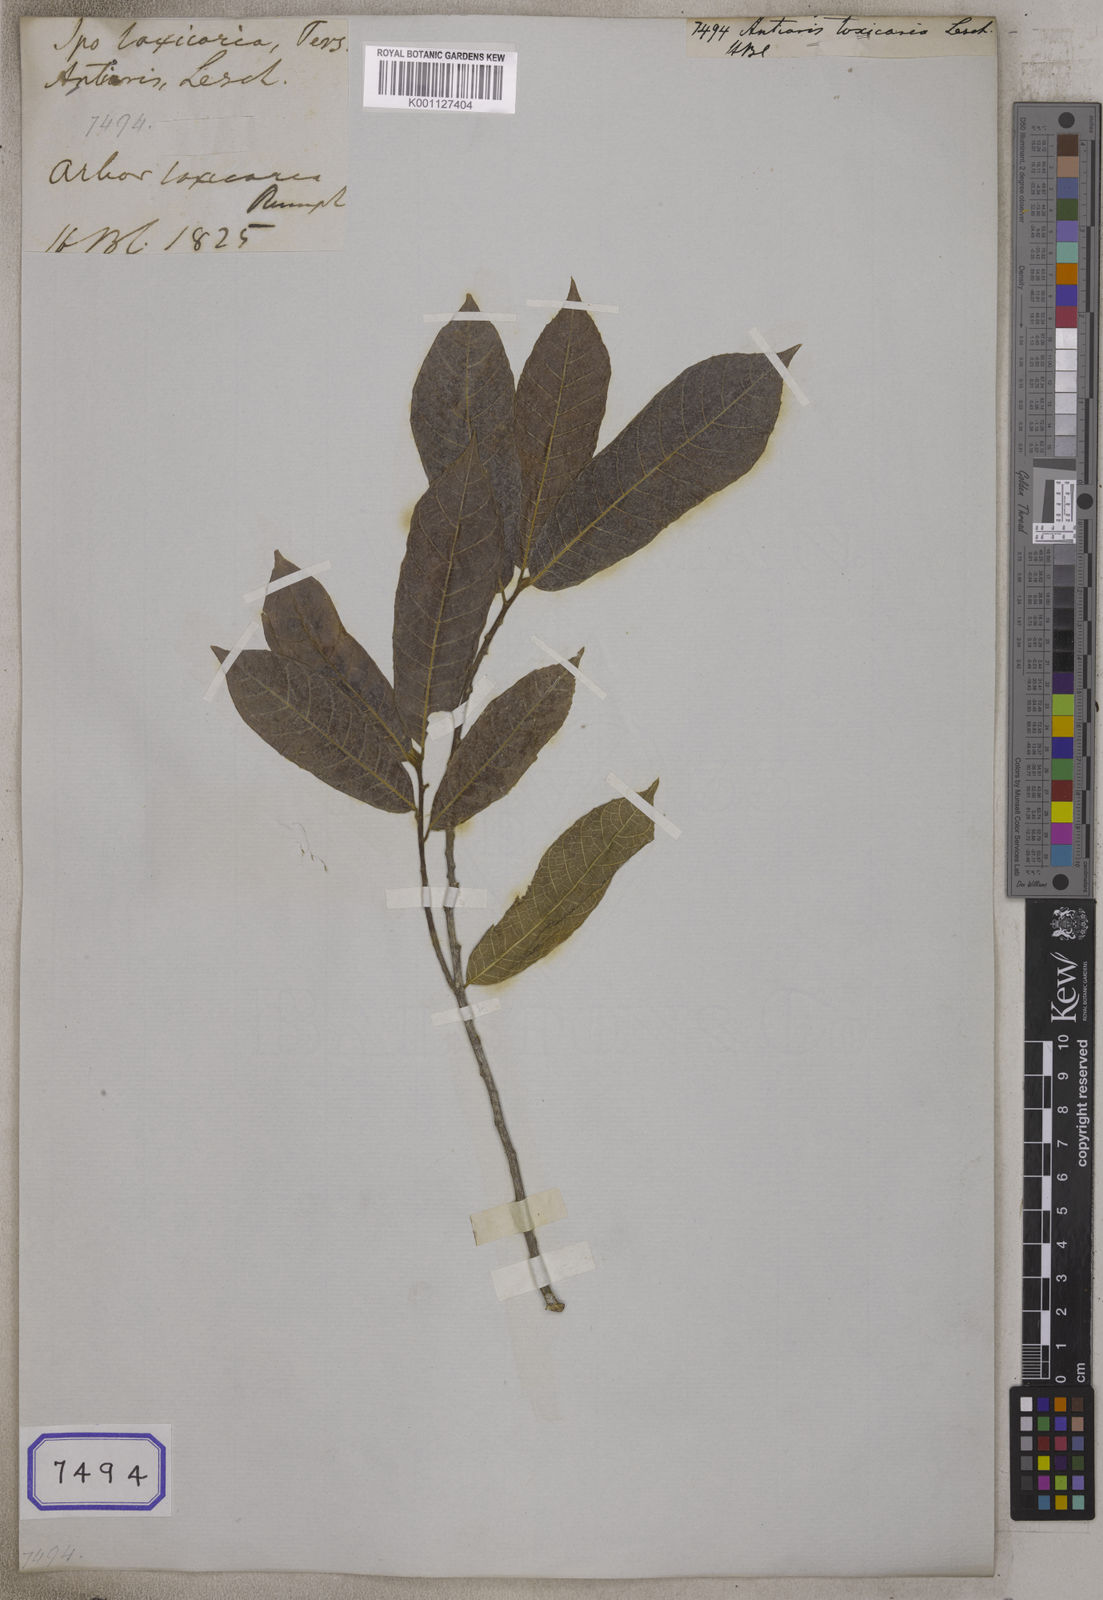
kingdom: Plantae
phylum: Tracheophyta
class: Magnoliopsida
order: Rosales
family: Moraceae
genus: Antiaris
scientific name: Antiaris toxicaria
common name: Sackingtree
